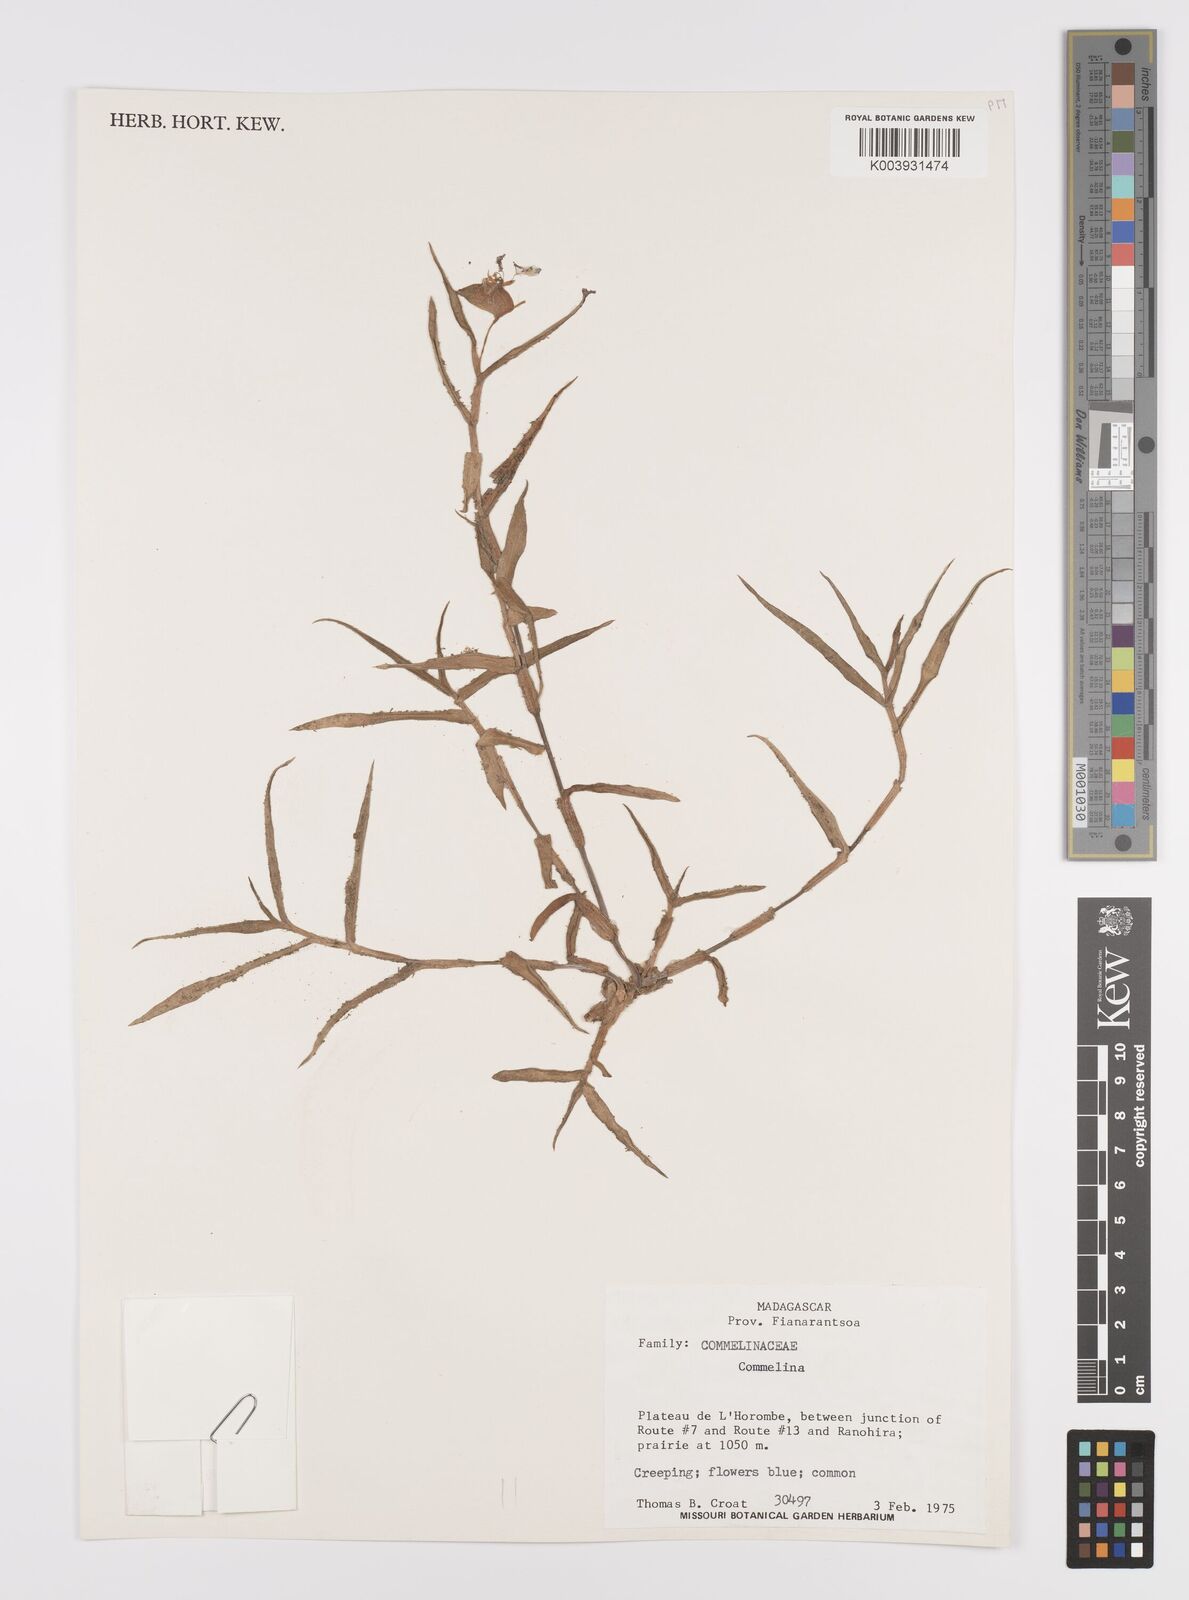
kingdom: Plantae
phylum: Tracheophyta
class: Liliopsida
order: Commelinales
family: Commelinaceae
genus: Commelina
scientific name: Commelina
